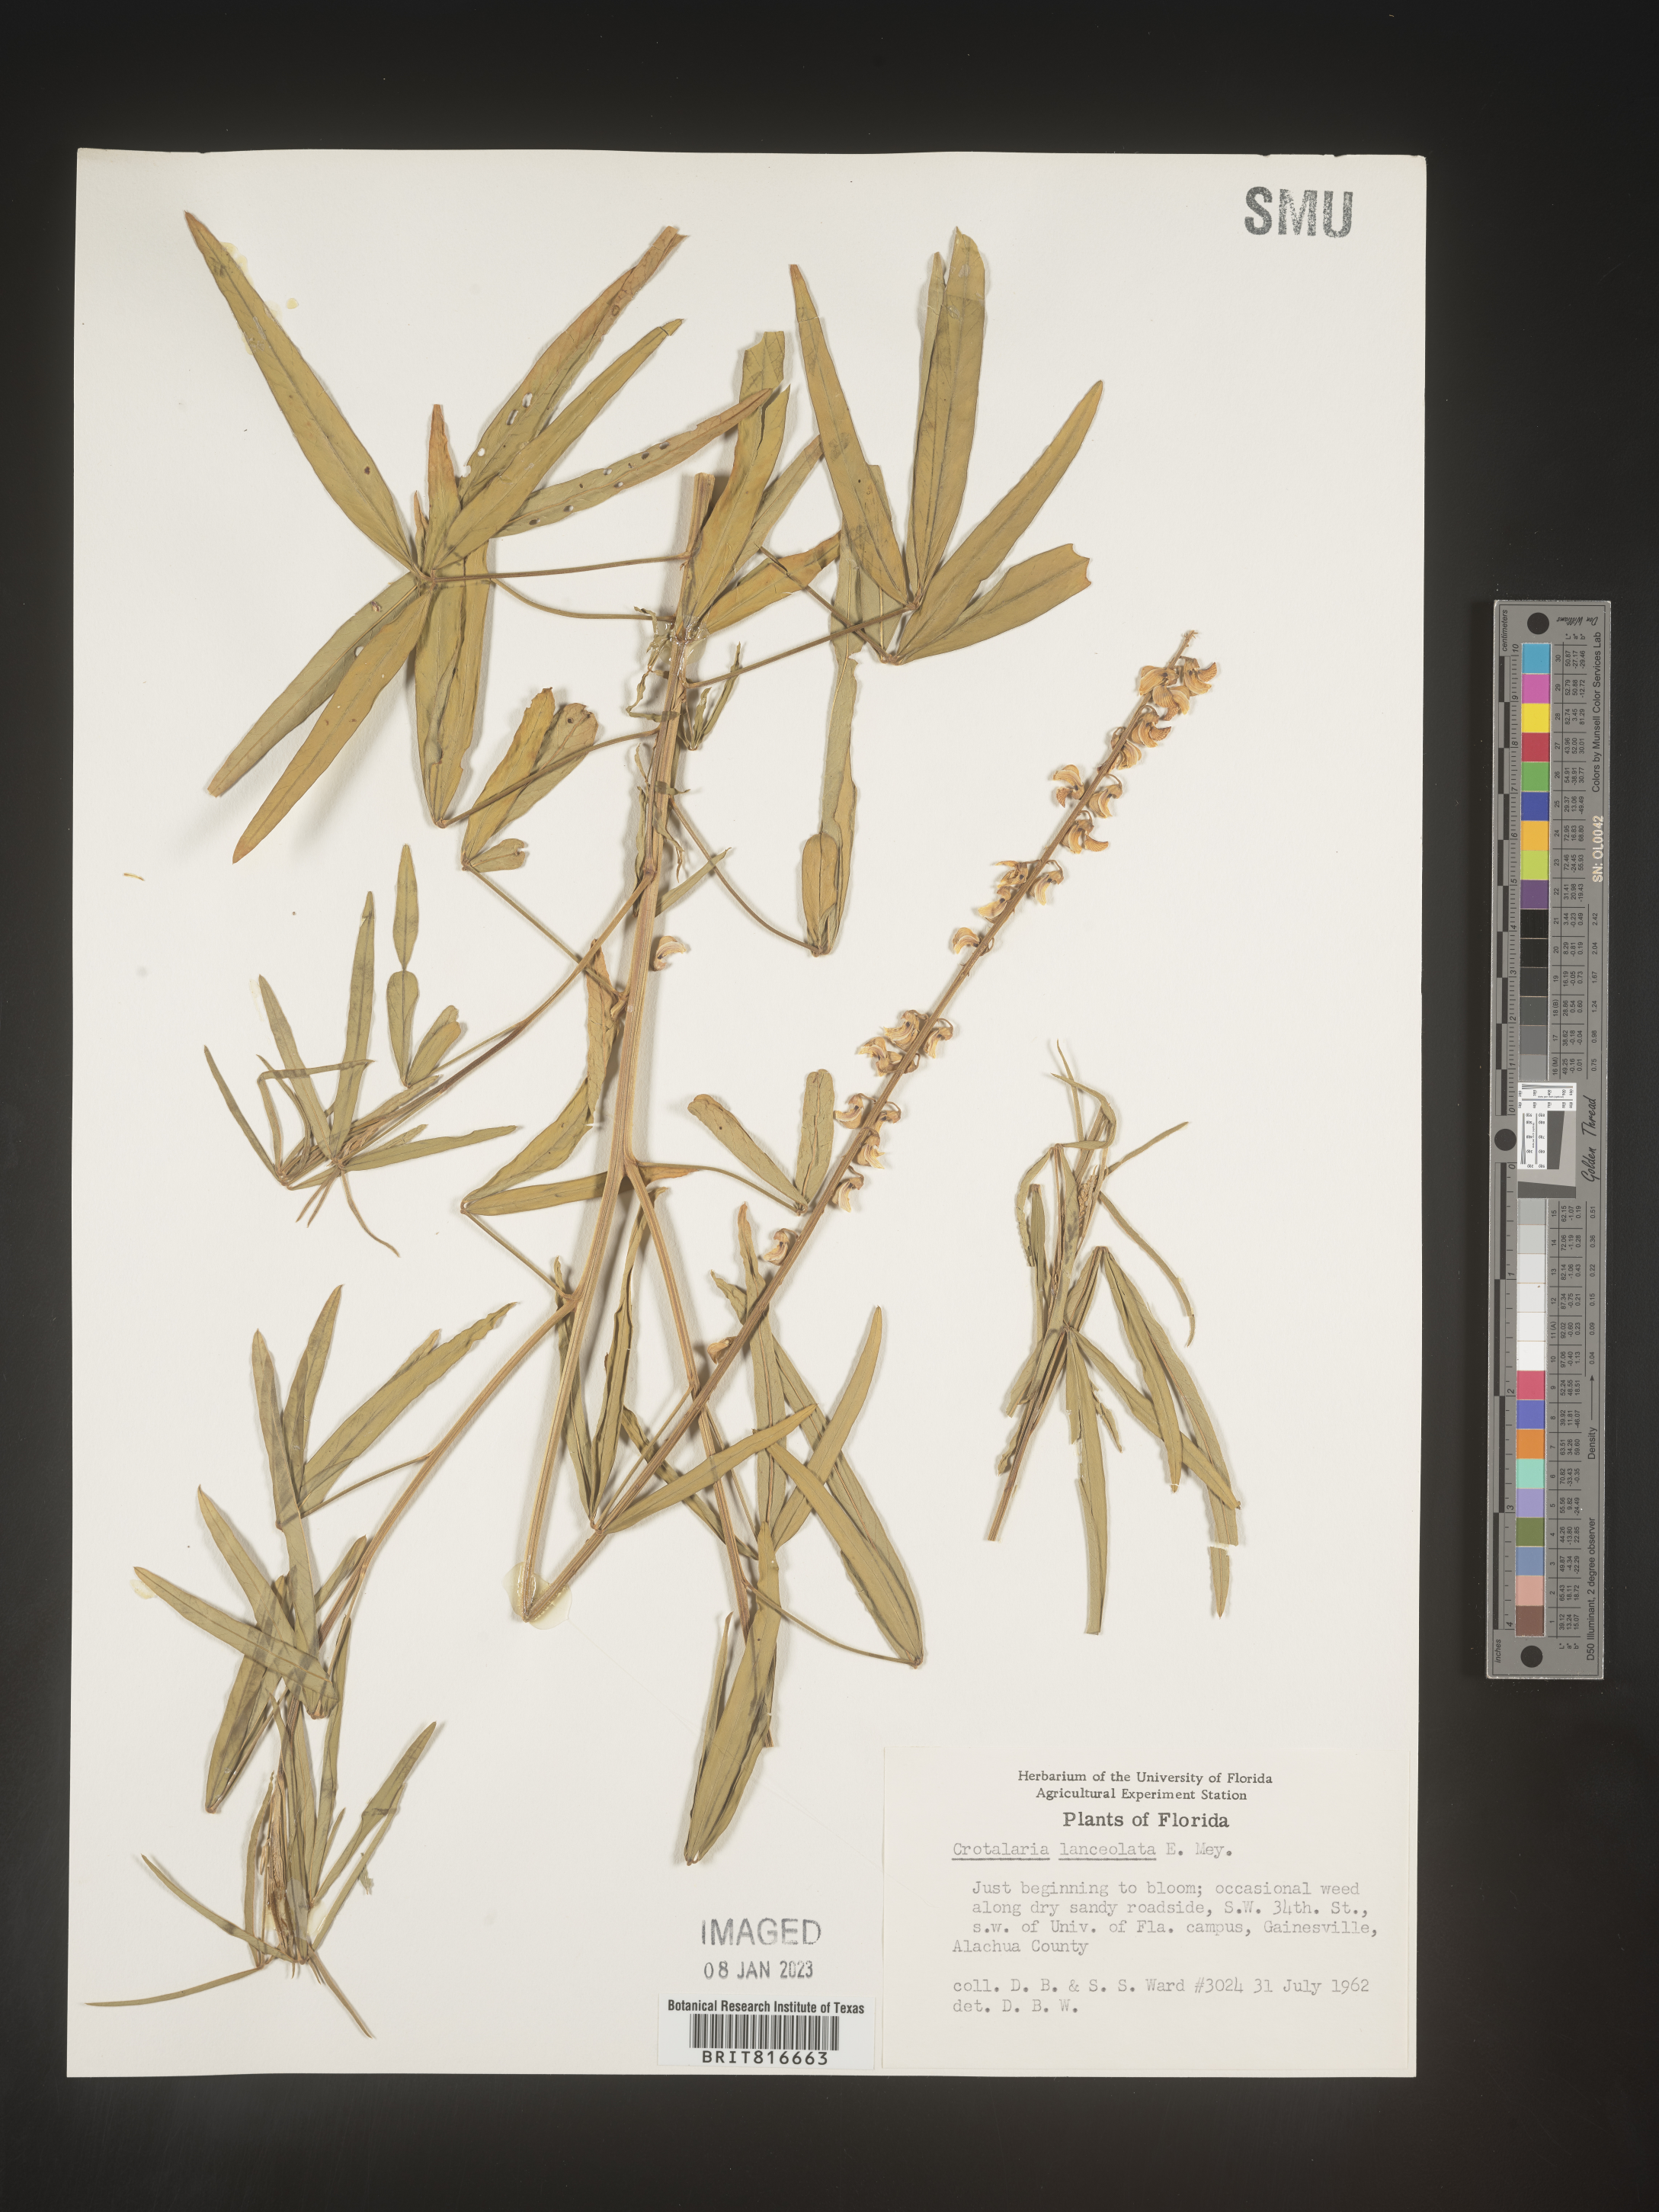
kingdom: Plantae
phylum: Tracheophyta
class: Magnoliopsida
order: Fabales
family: Fabaceae
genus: Crotalaria
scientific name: Crotalaria
